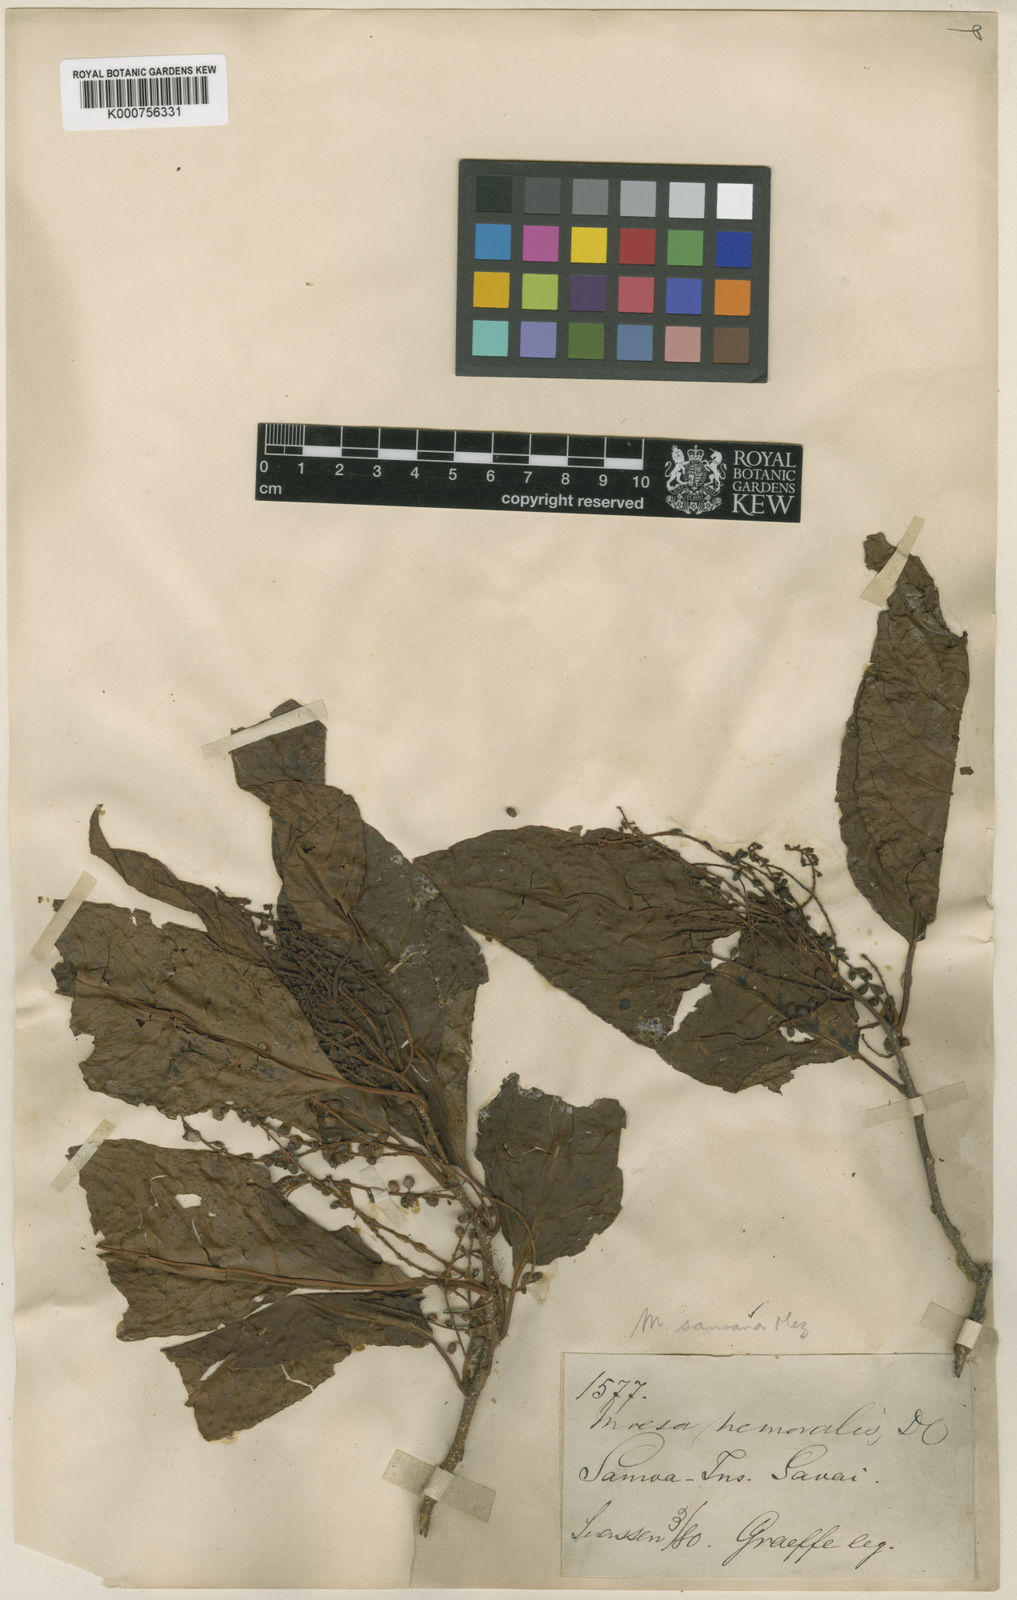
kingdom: Plantae
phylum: Tracheophyta
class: Magnoliopsida
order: Ericales
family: Primulaceae
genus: Maesa
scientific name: Maesa samoana
